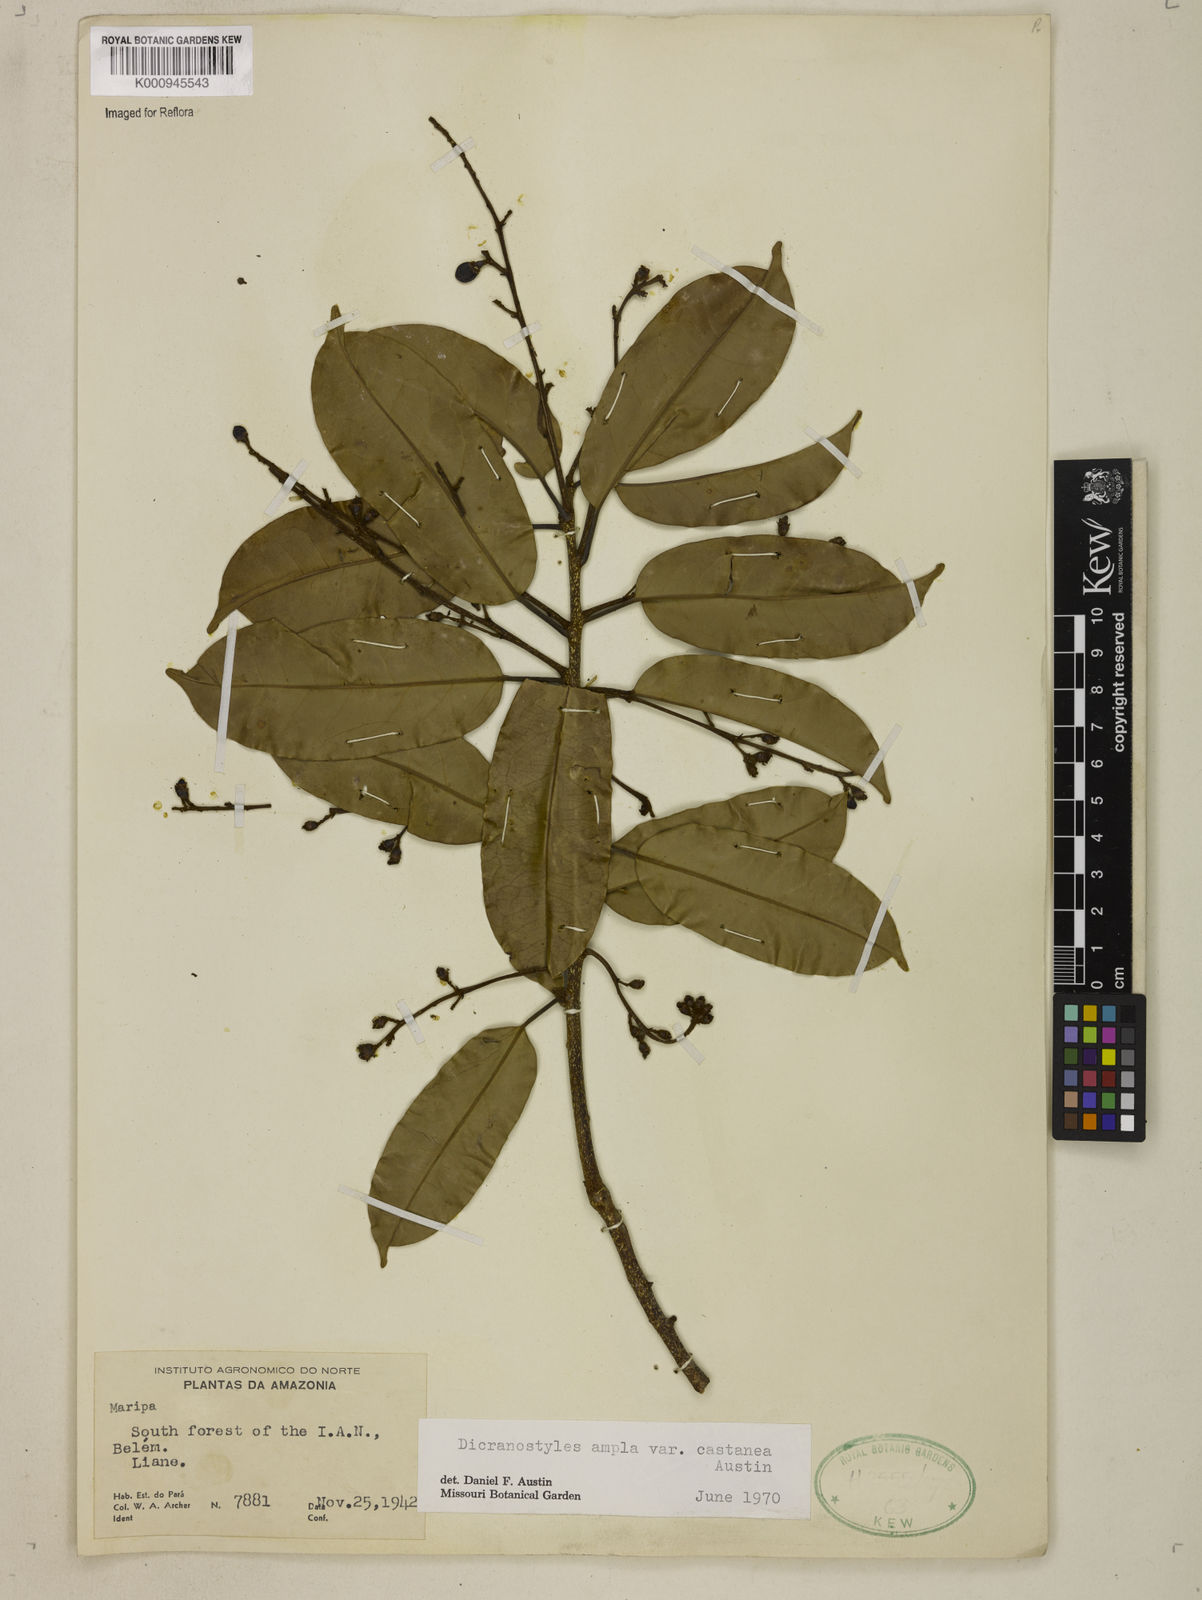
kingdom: Plantae
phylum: Tracheophyta
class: Magnoliopsida
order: Solanales
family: Convolvulaceae
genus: Dicranostyles
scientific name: Dicranostyles ampla
